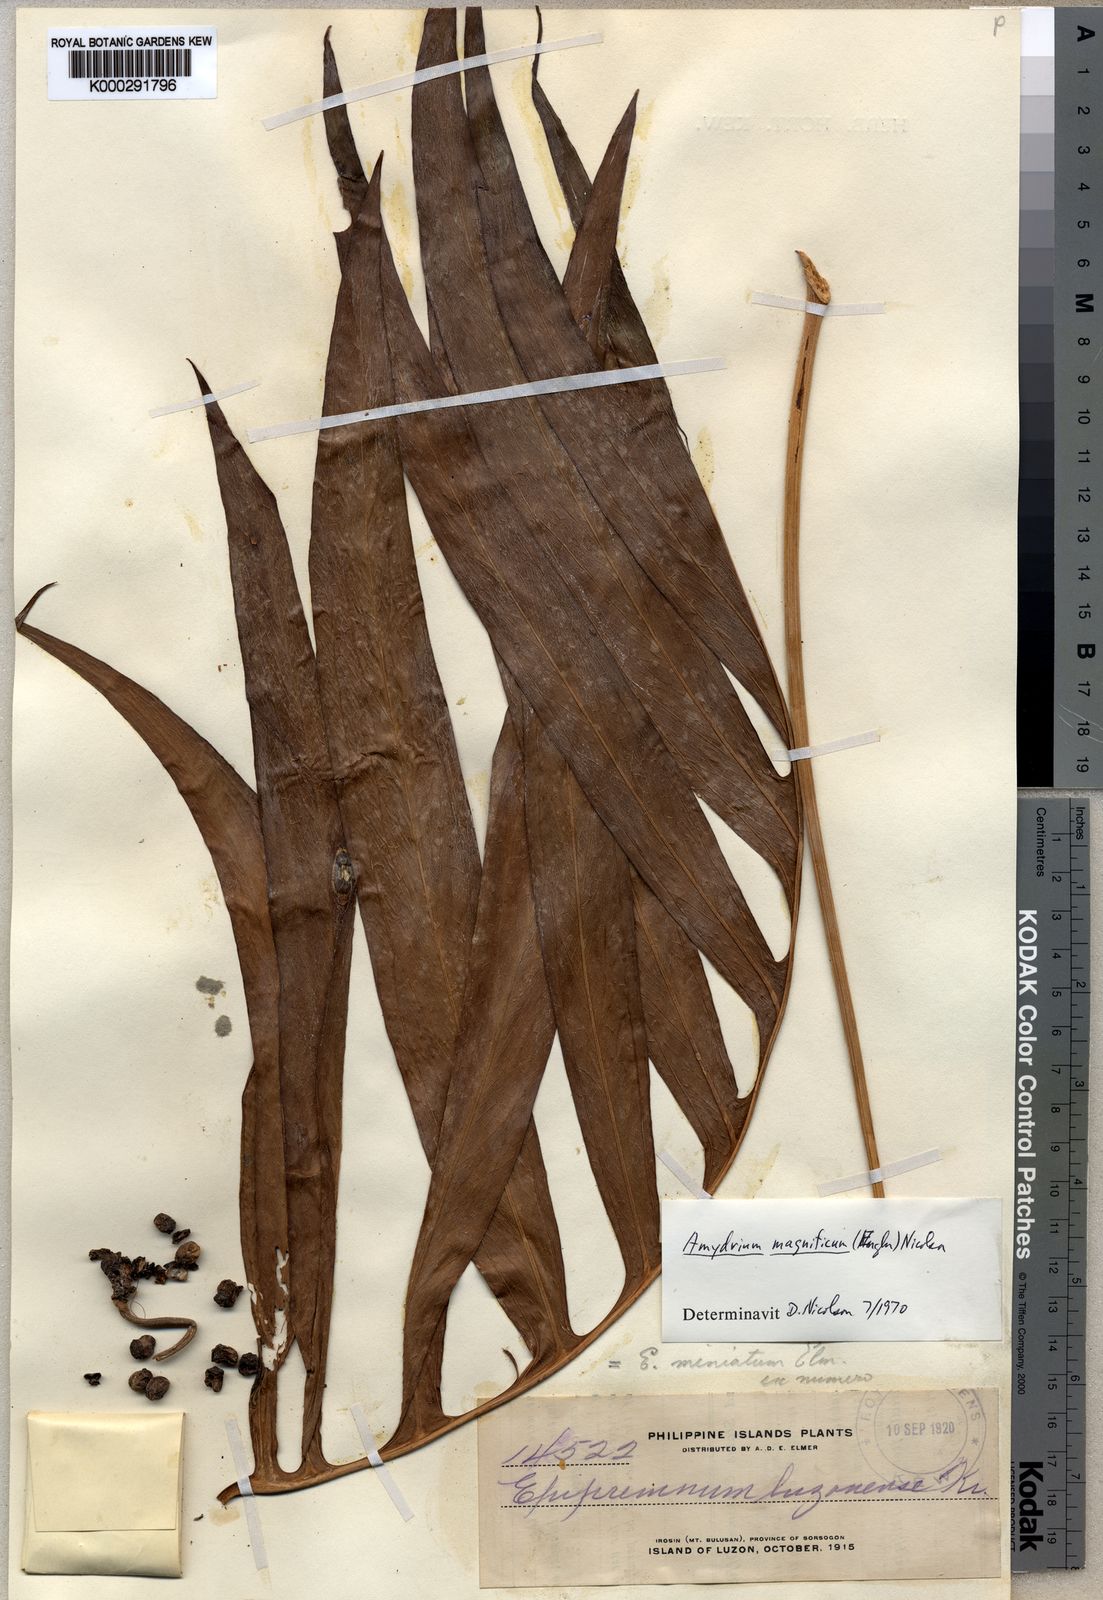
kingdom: Plantae
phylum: Tracheophyta
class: Liliopsida
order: Alismatales
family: Araceae
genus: Amydrium
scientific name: Amydrium zippelianum
